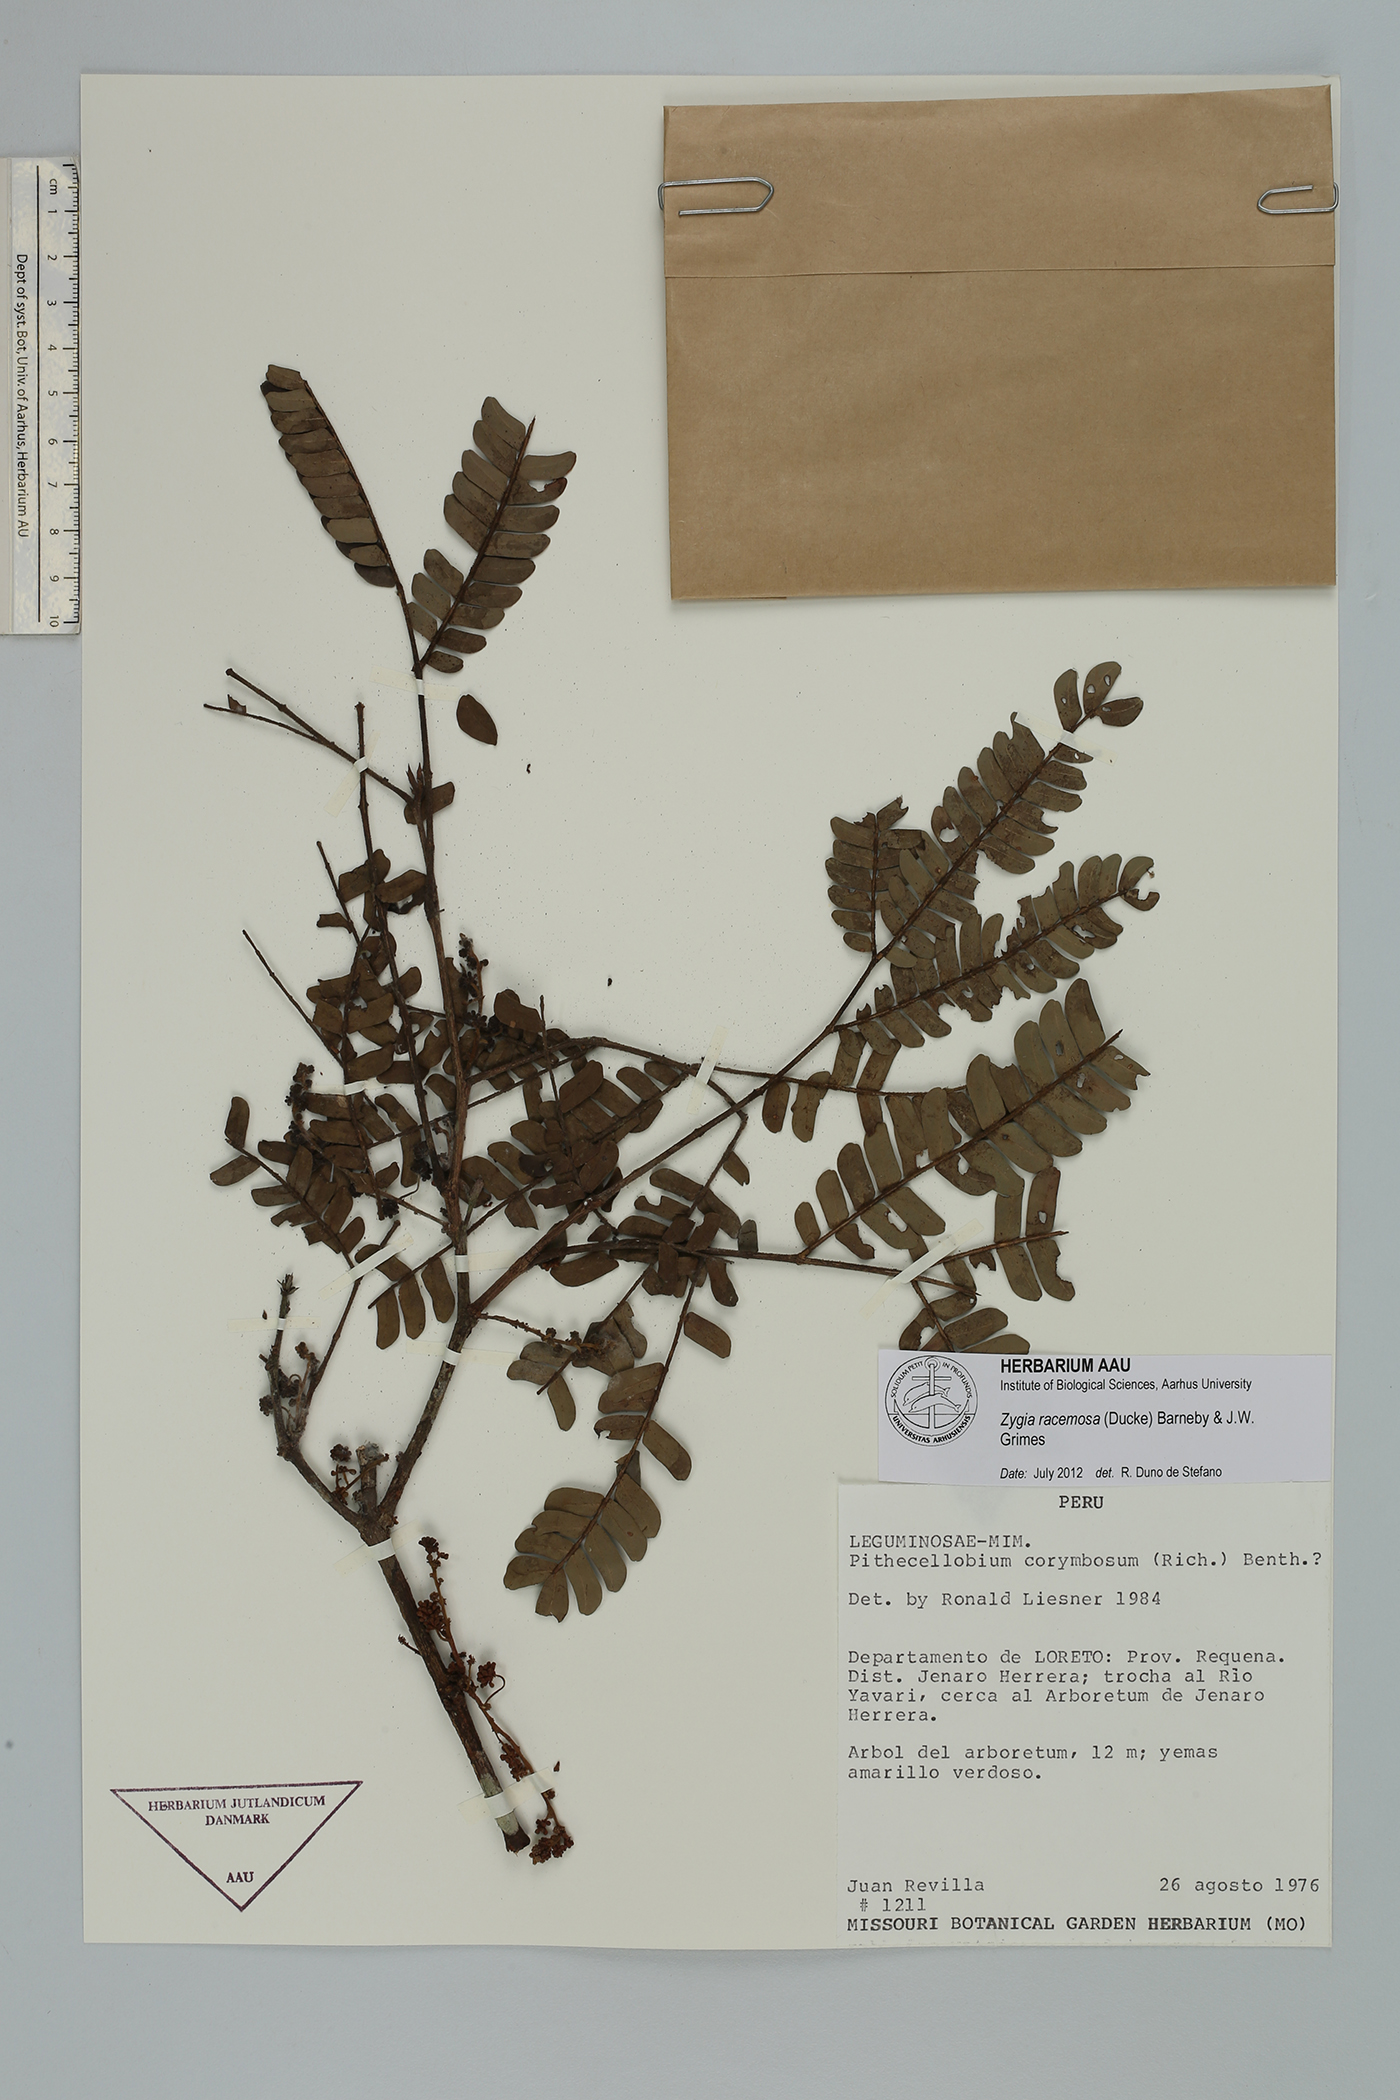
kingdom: Plantae
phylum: Tracheophyta
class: Magnoliopsida
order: Fabales
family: Fabaceae
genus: Zygia
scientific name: Zygia racemosa
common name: Marblewood
